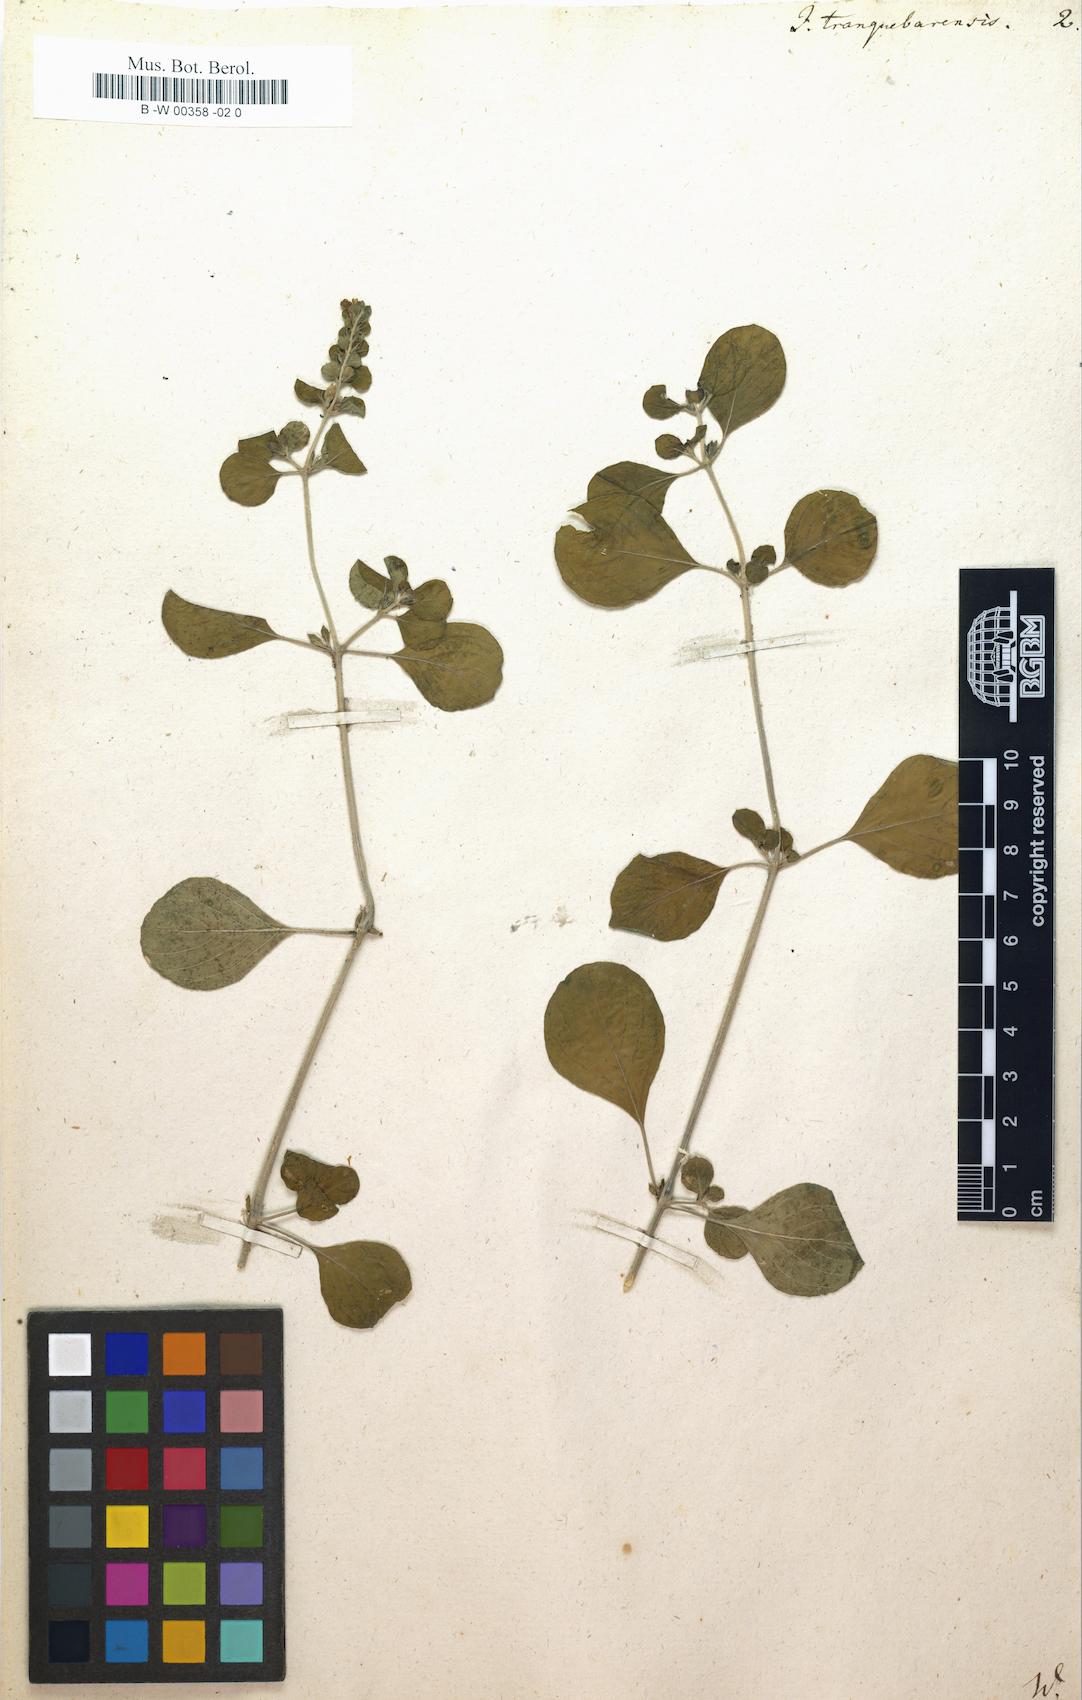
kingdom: Plantae
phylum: Tracheophyta
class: Magnoliopsida
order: Lamiales
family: Acanthaceae
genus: Justicia
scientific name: Justicia tranquebariensis
